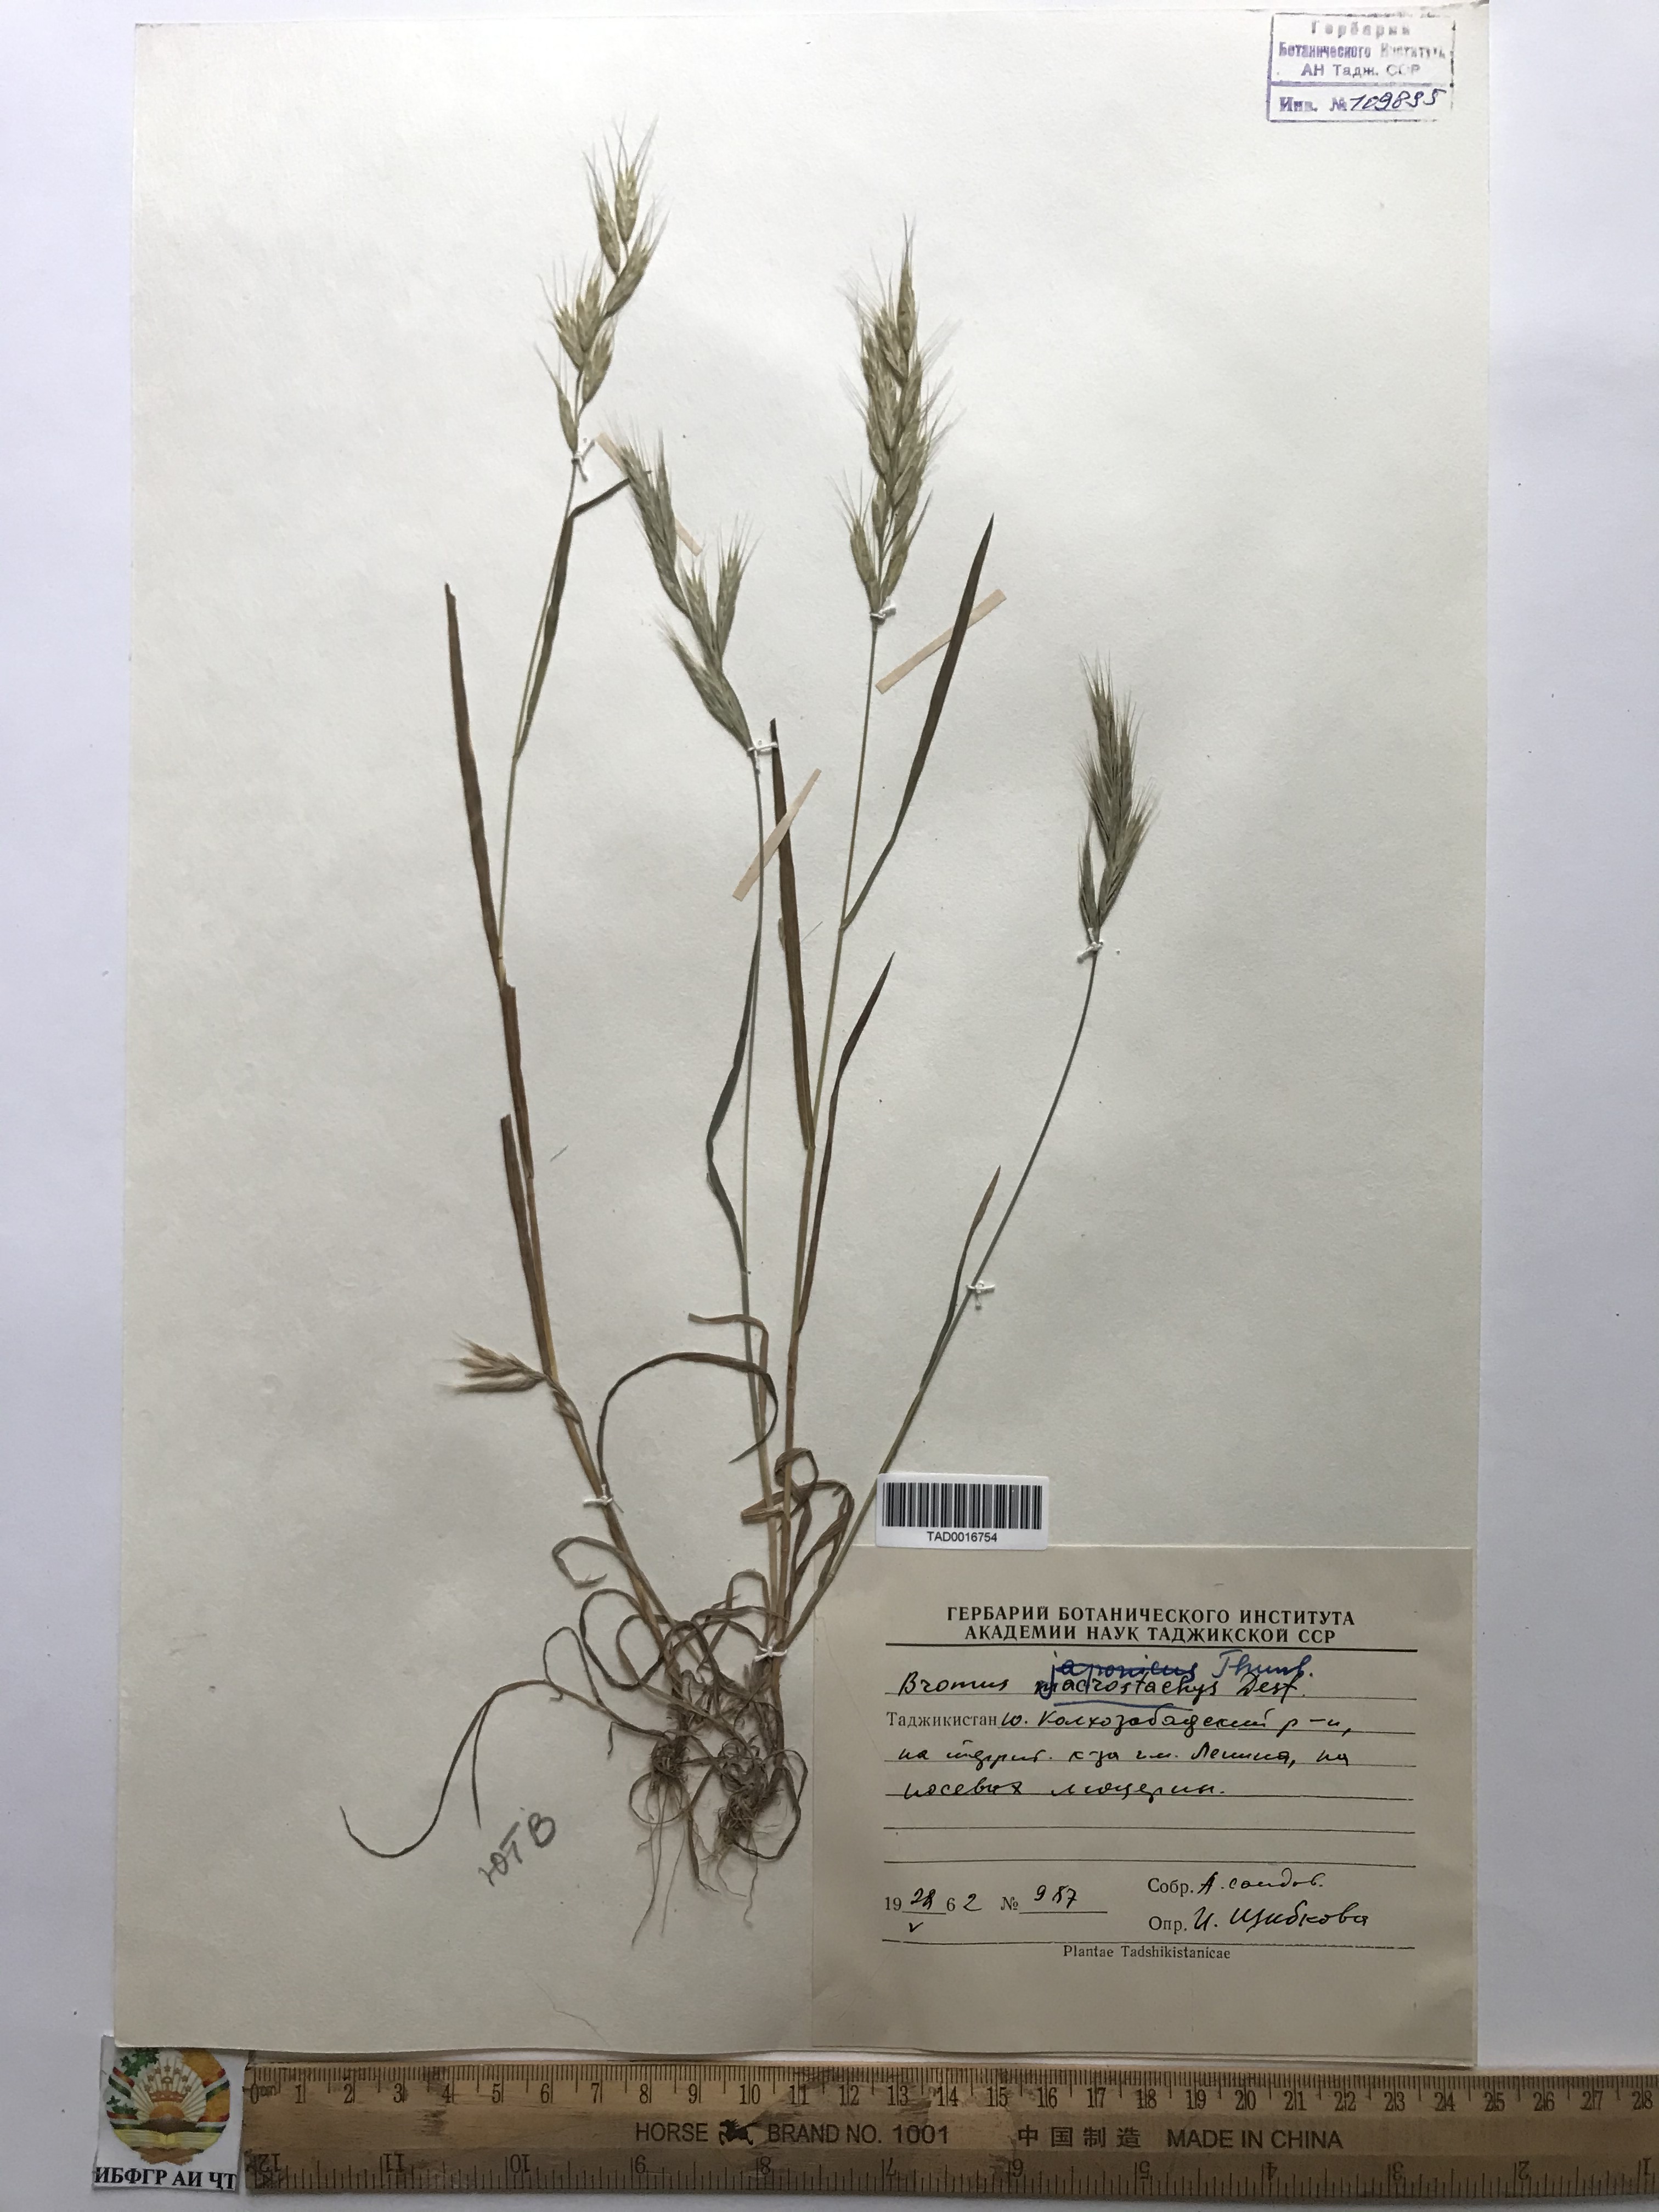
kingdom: Plantae
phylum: Tracheophyta
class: Liliopsida
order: Poales
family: Poaceae
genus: Bromus
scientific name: Bromus lanceolatus
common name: Mediterranean brome
